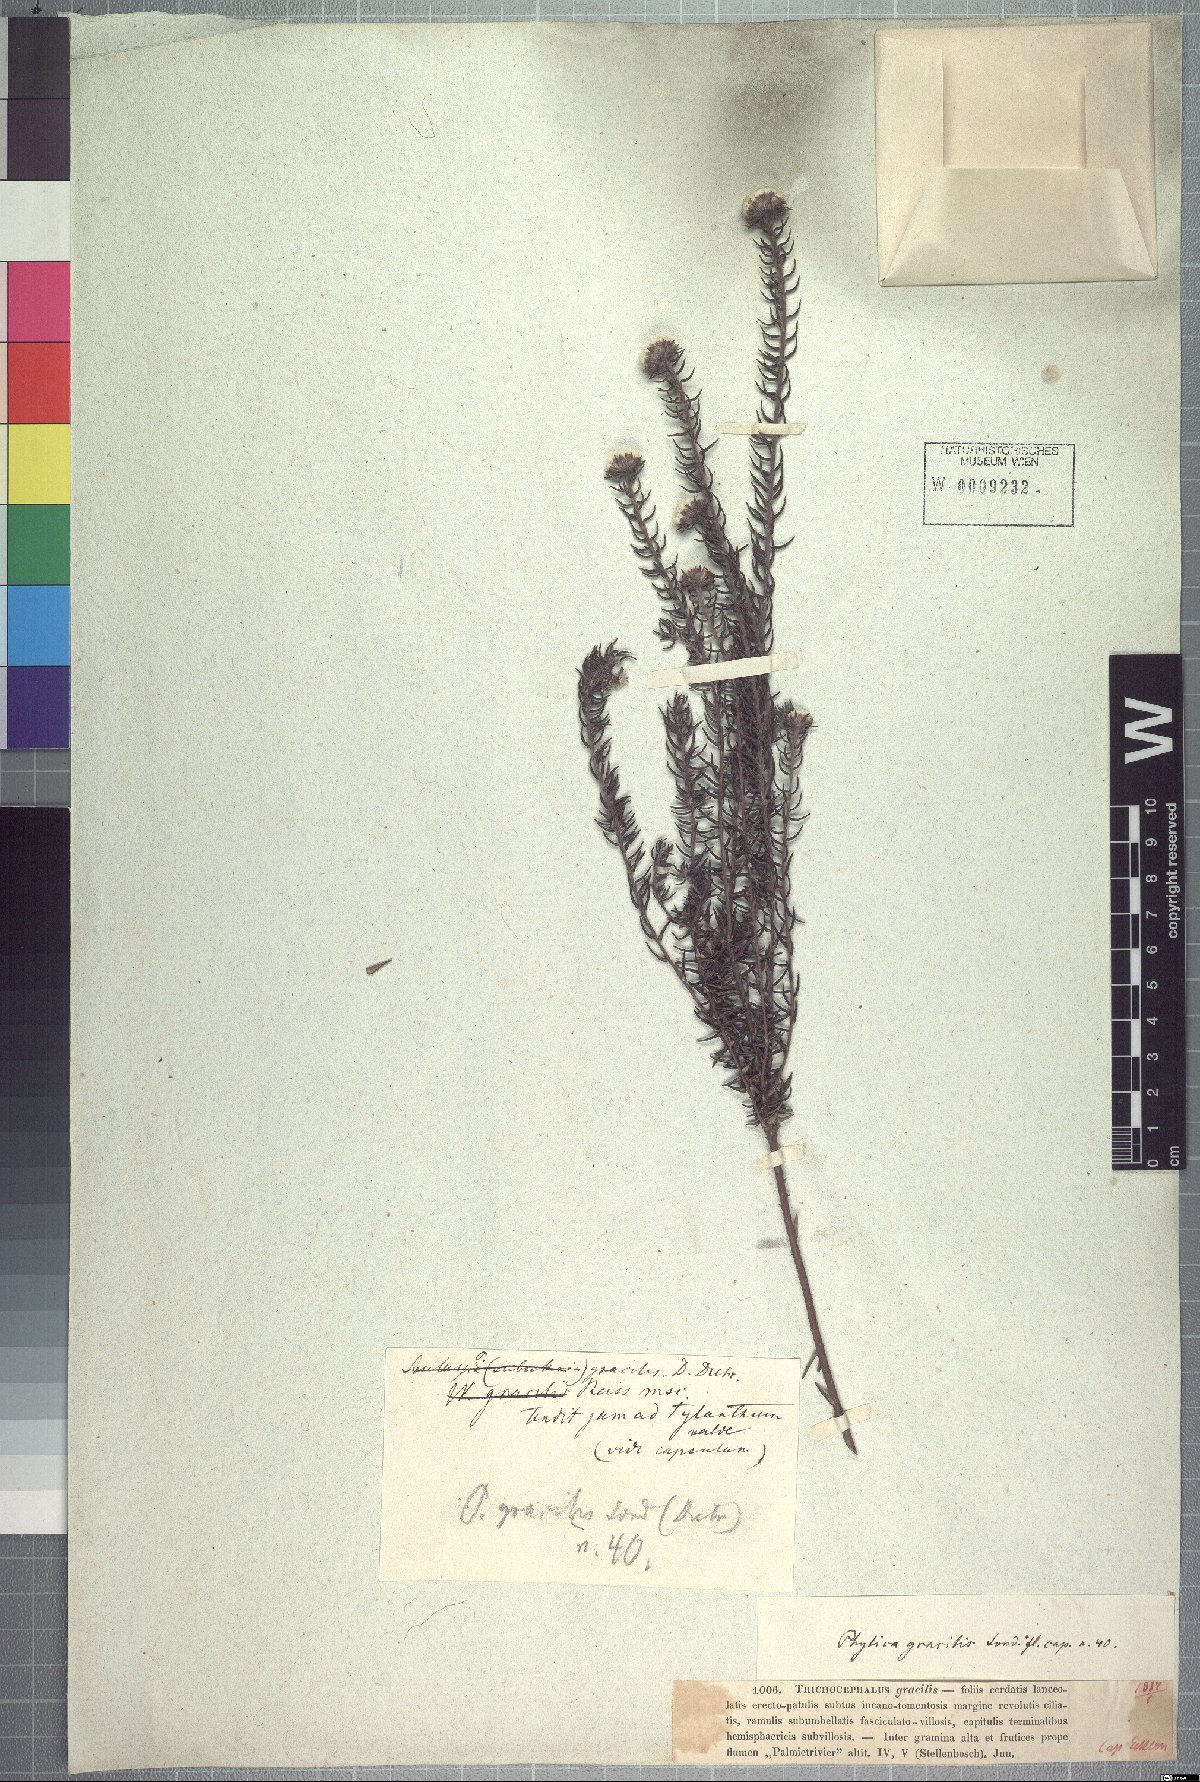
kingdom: Plantae
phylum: Tracheophyta
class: Magnoliopsida
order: Rosales
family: Rhamnaceae
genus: Phylica
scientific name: Phylica gracilis
